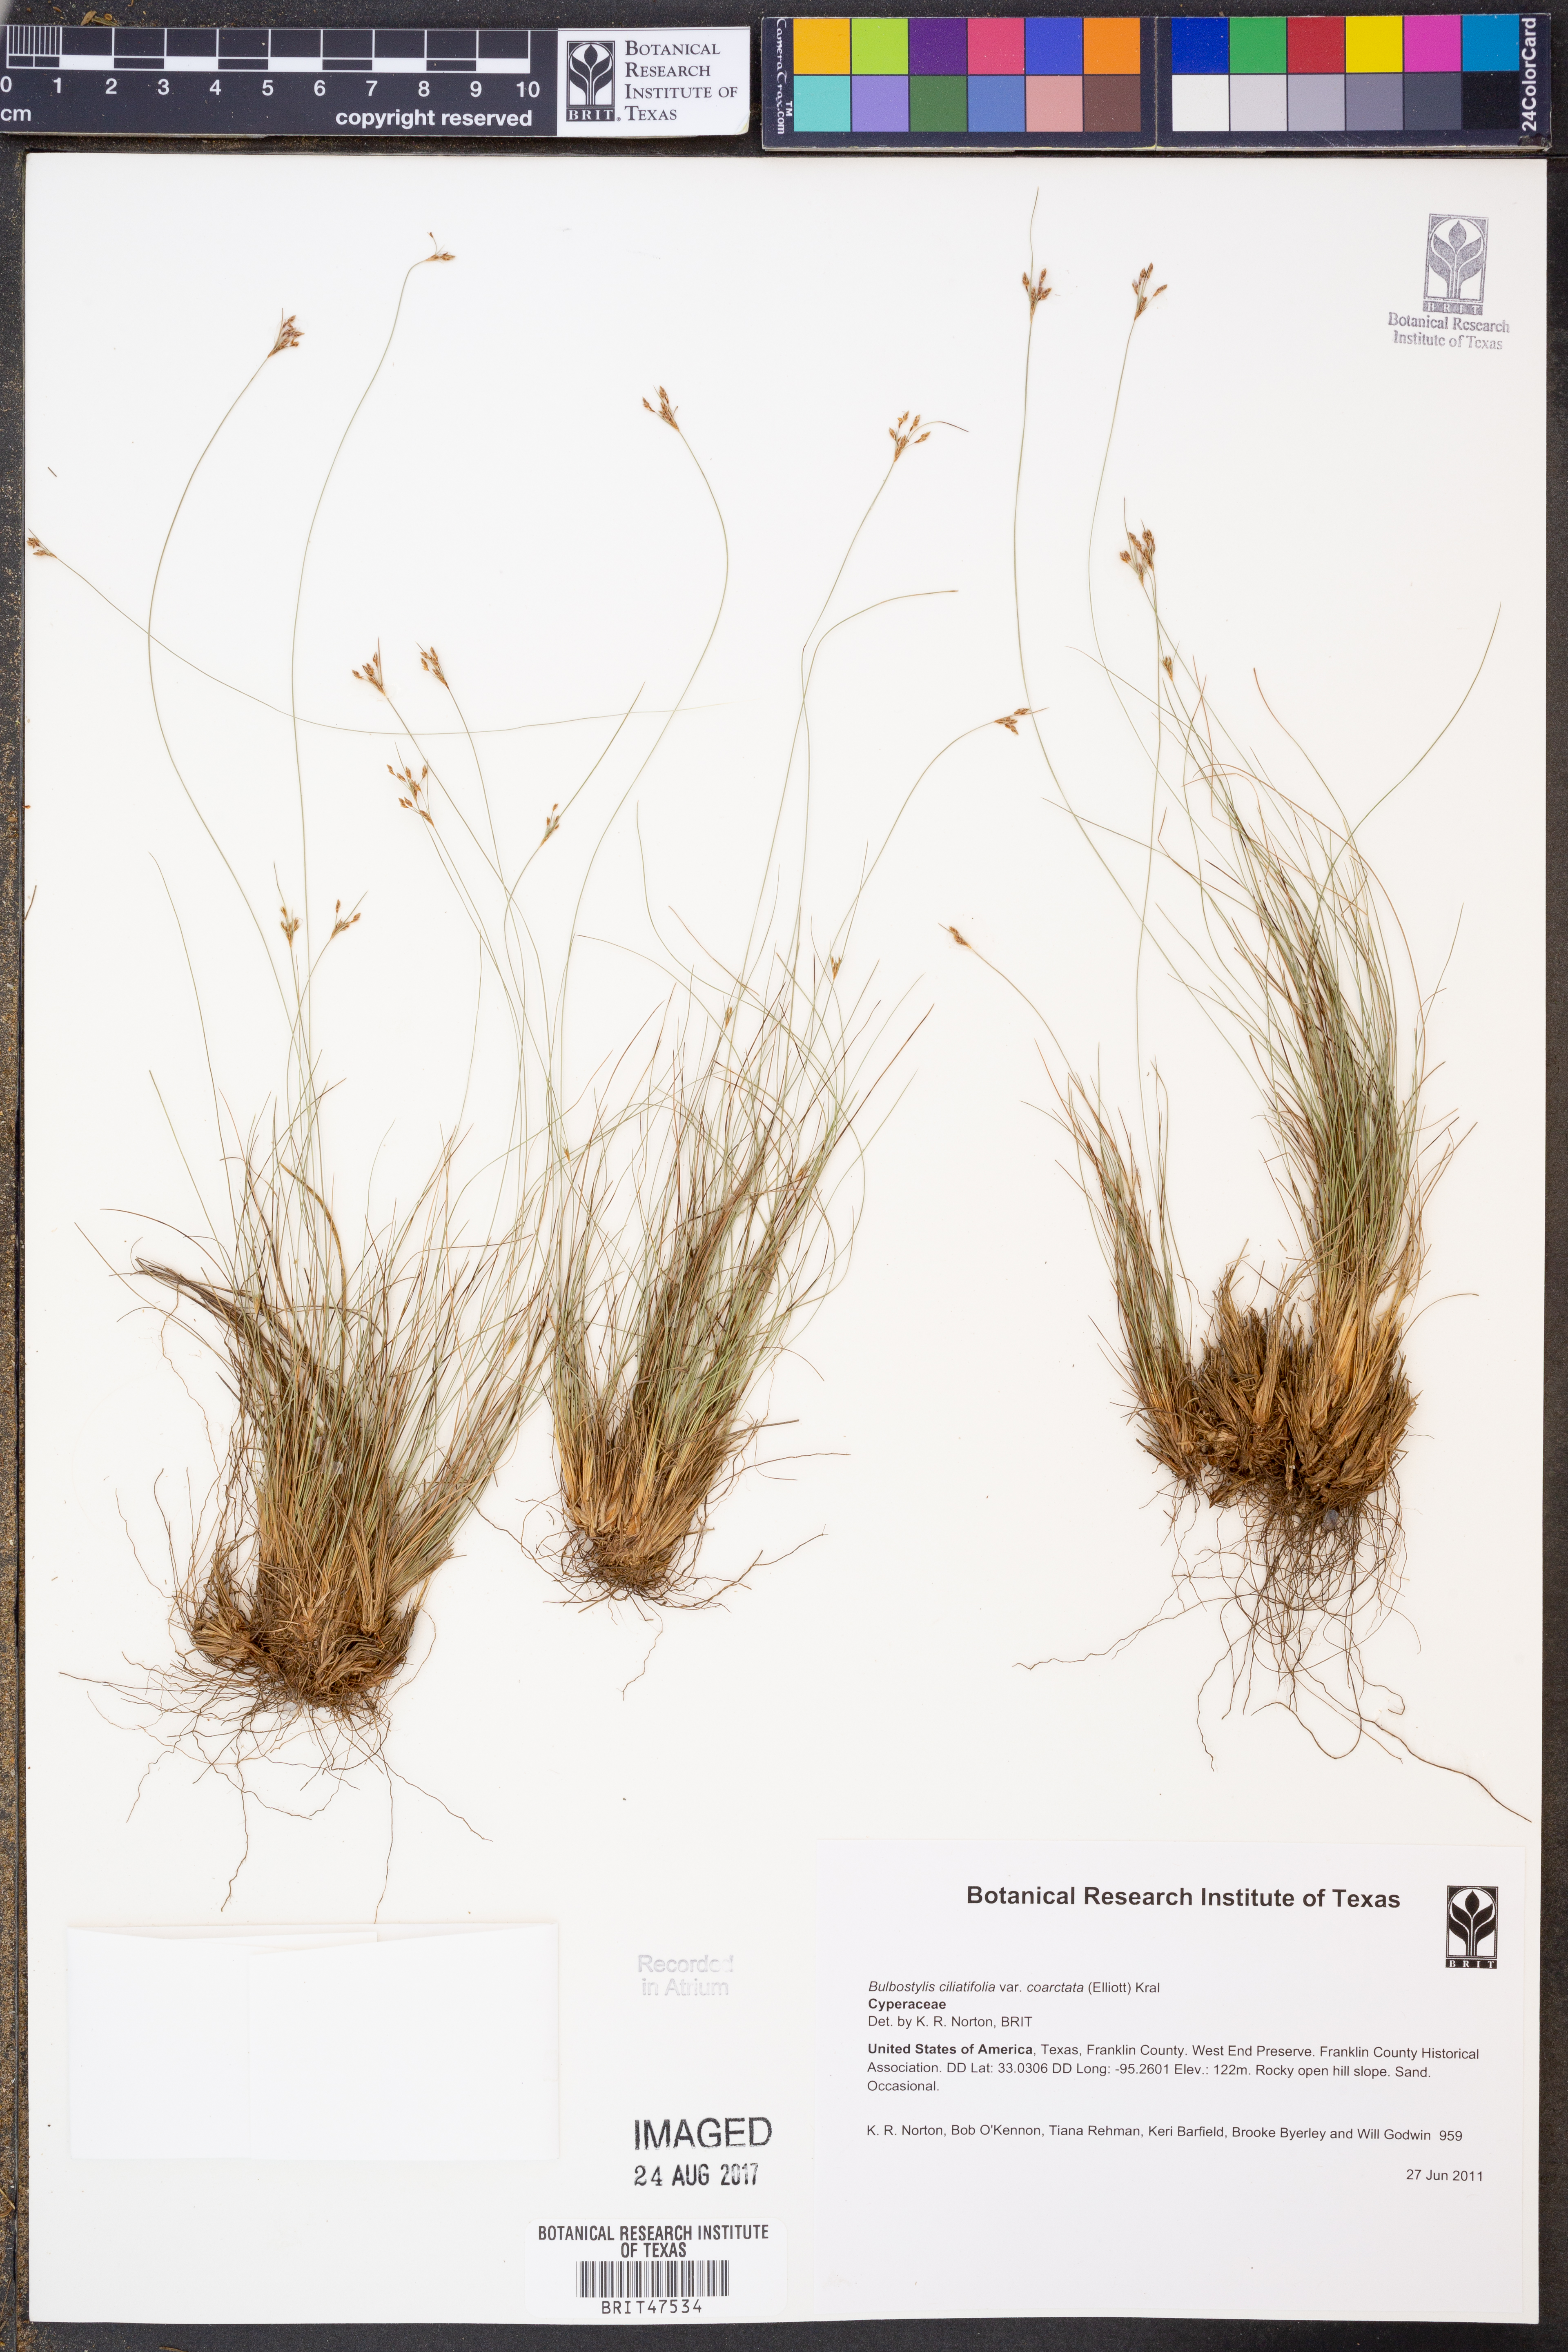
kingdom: Plantae
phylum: Tracheophyta
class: Liliopsida
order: Poales
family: Cyperaceae
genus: Bulbostylis
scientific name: Bulbostylis ciliatifolia
